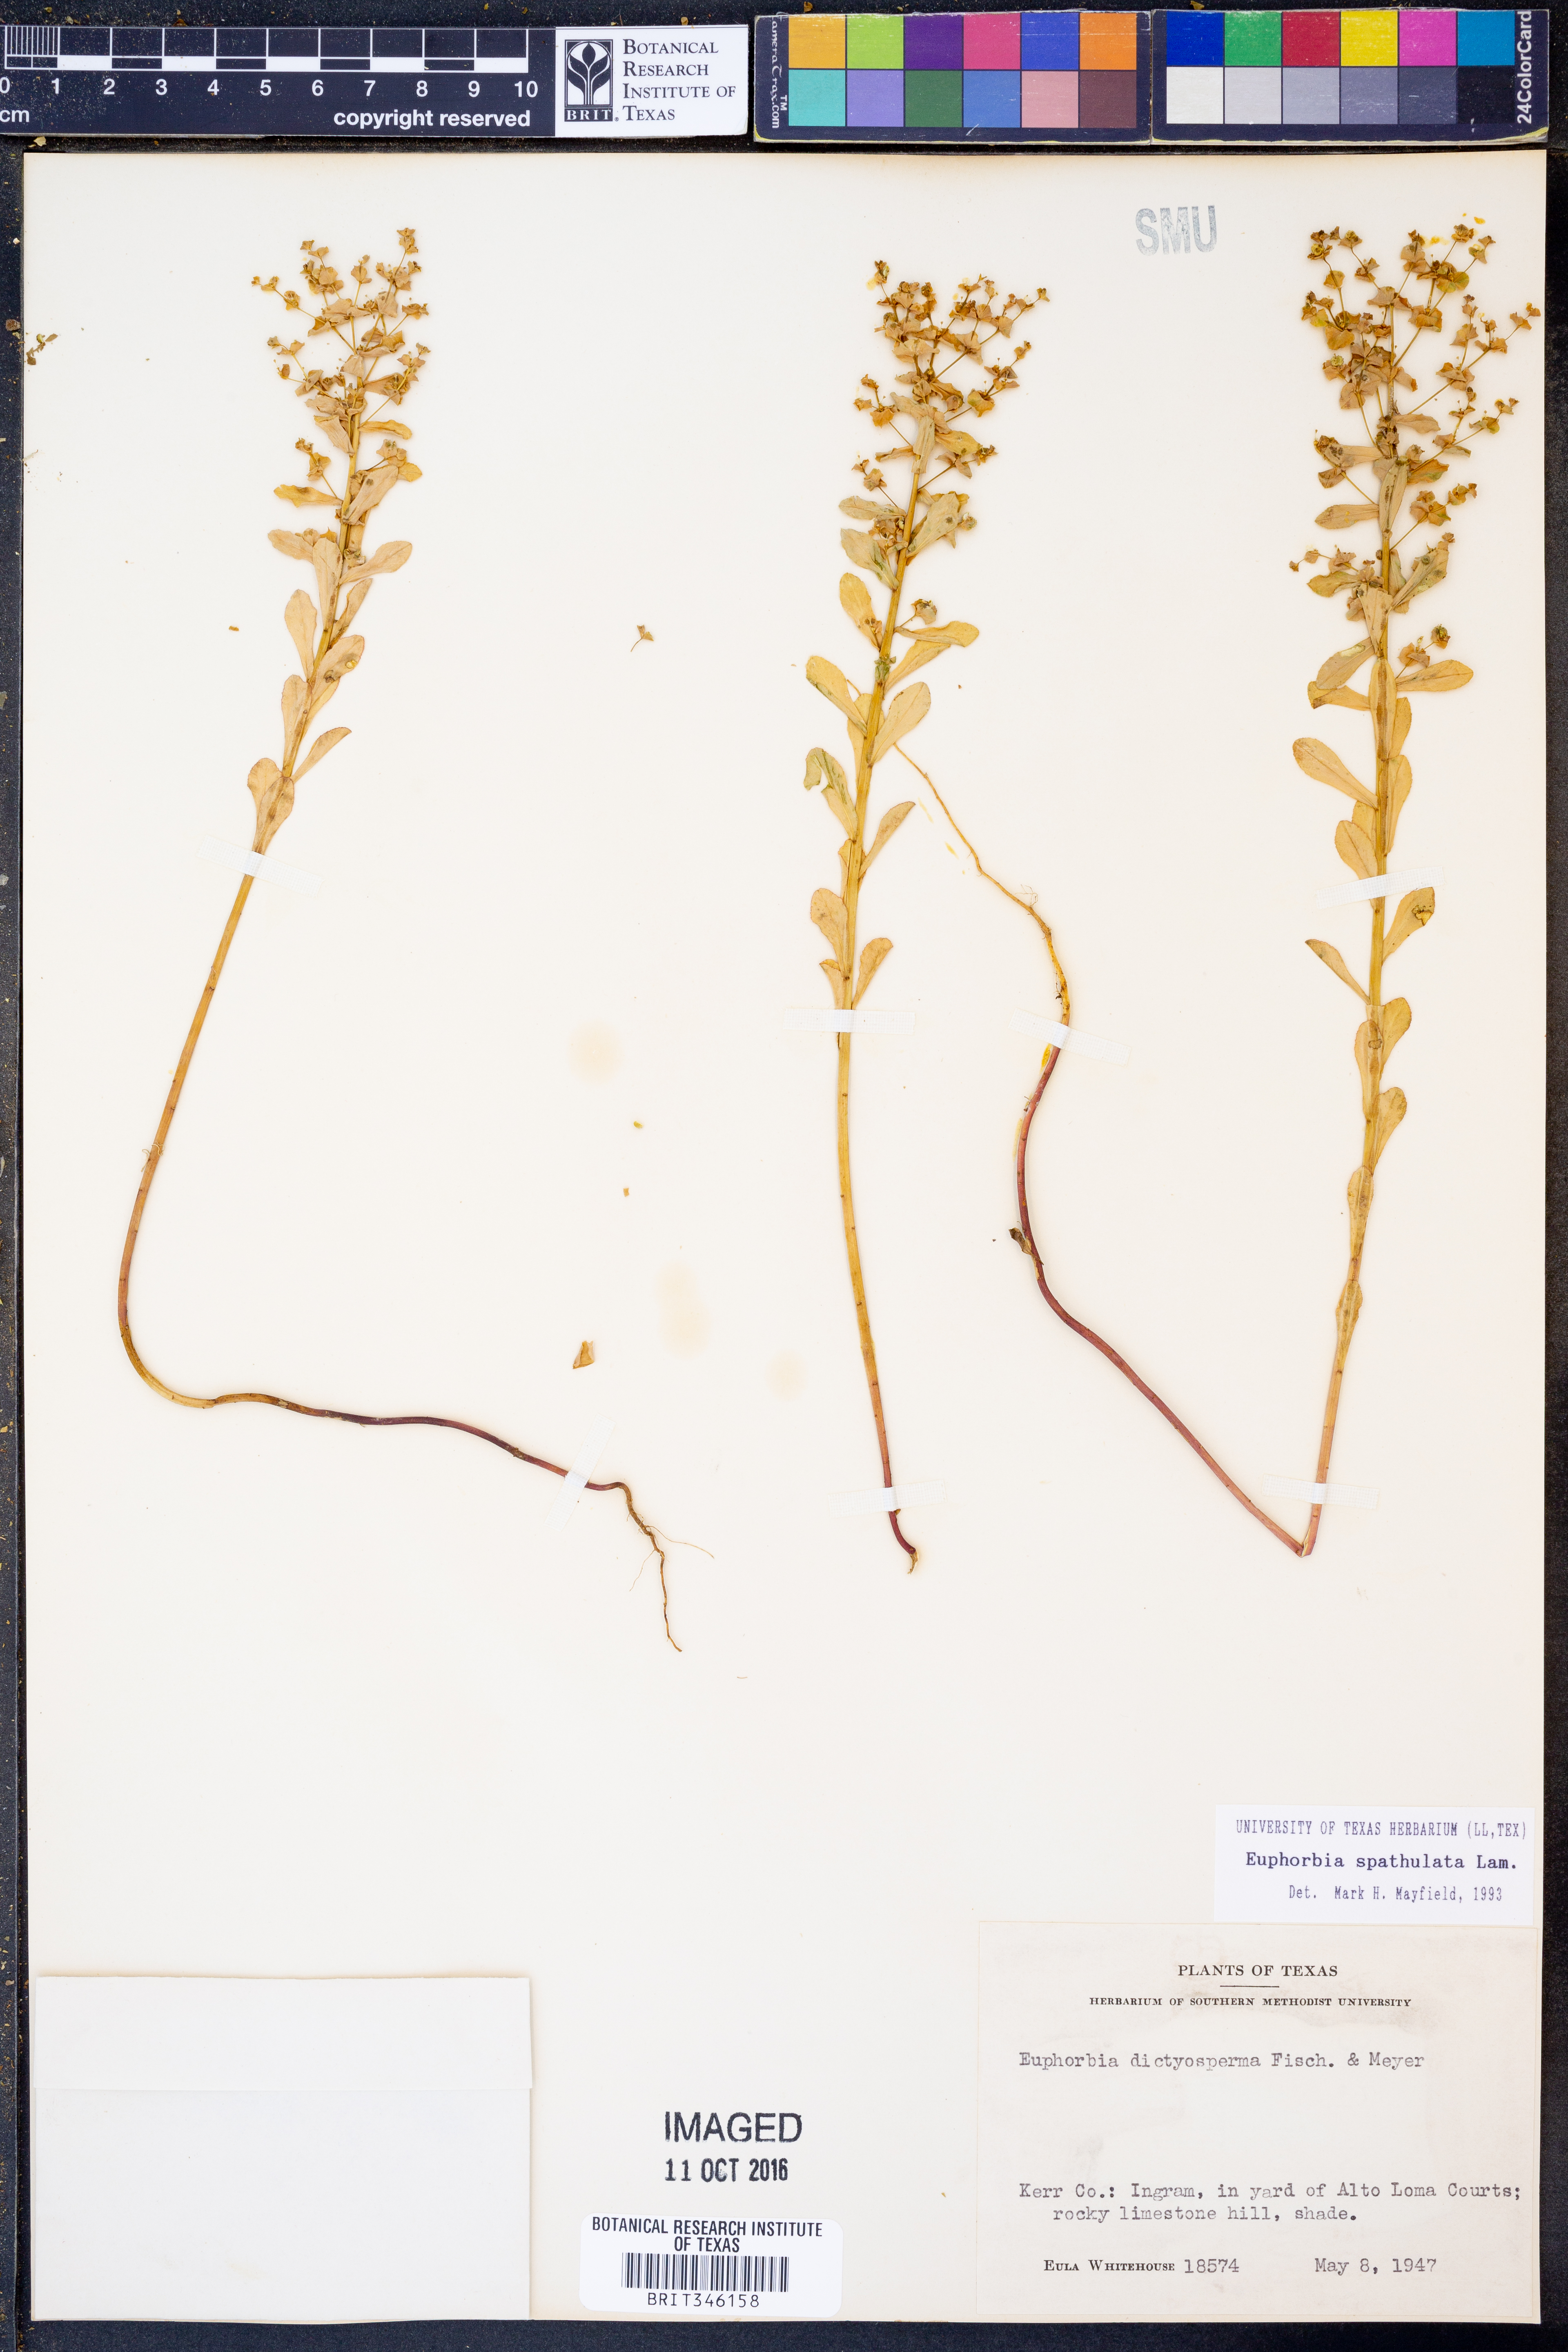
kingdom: Plantae
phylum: Tracheophyta
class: Magnoliopsida
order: Malpighiales
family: Euphorbiaceae
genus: Euphorbia
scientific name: Euphorbia spathulata
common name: Blunt spurge
